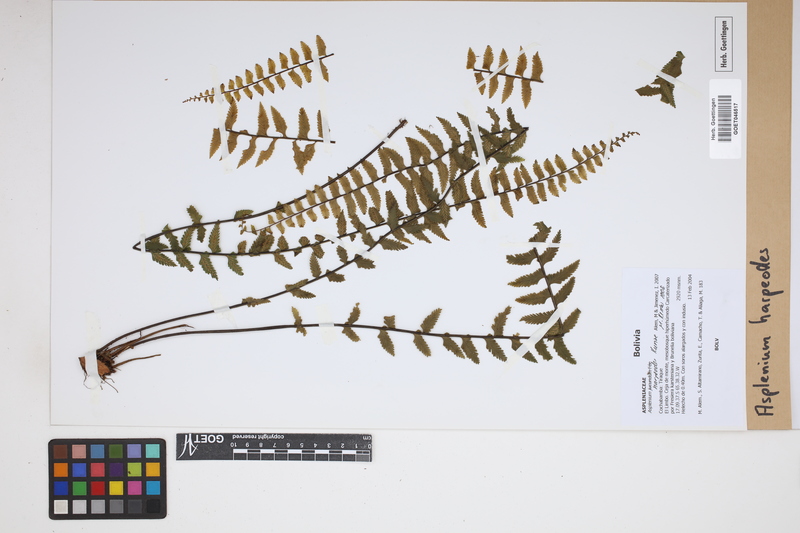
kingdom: Plantae
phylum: Tracheophyta
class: Polypodiopsida
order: Polypodiales
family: Aspleniaceae
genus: Asplenium
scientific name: Asplenium harpeodes
